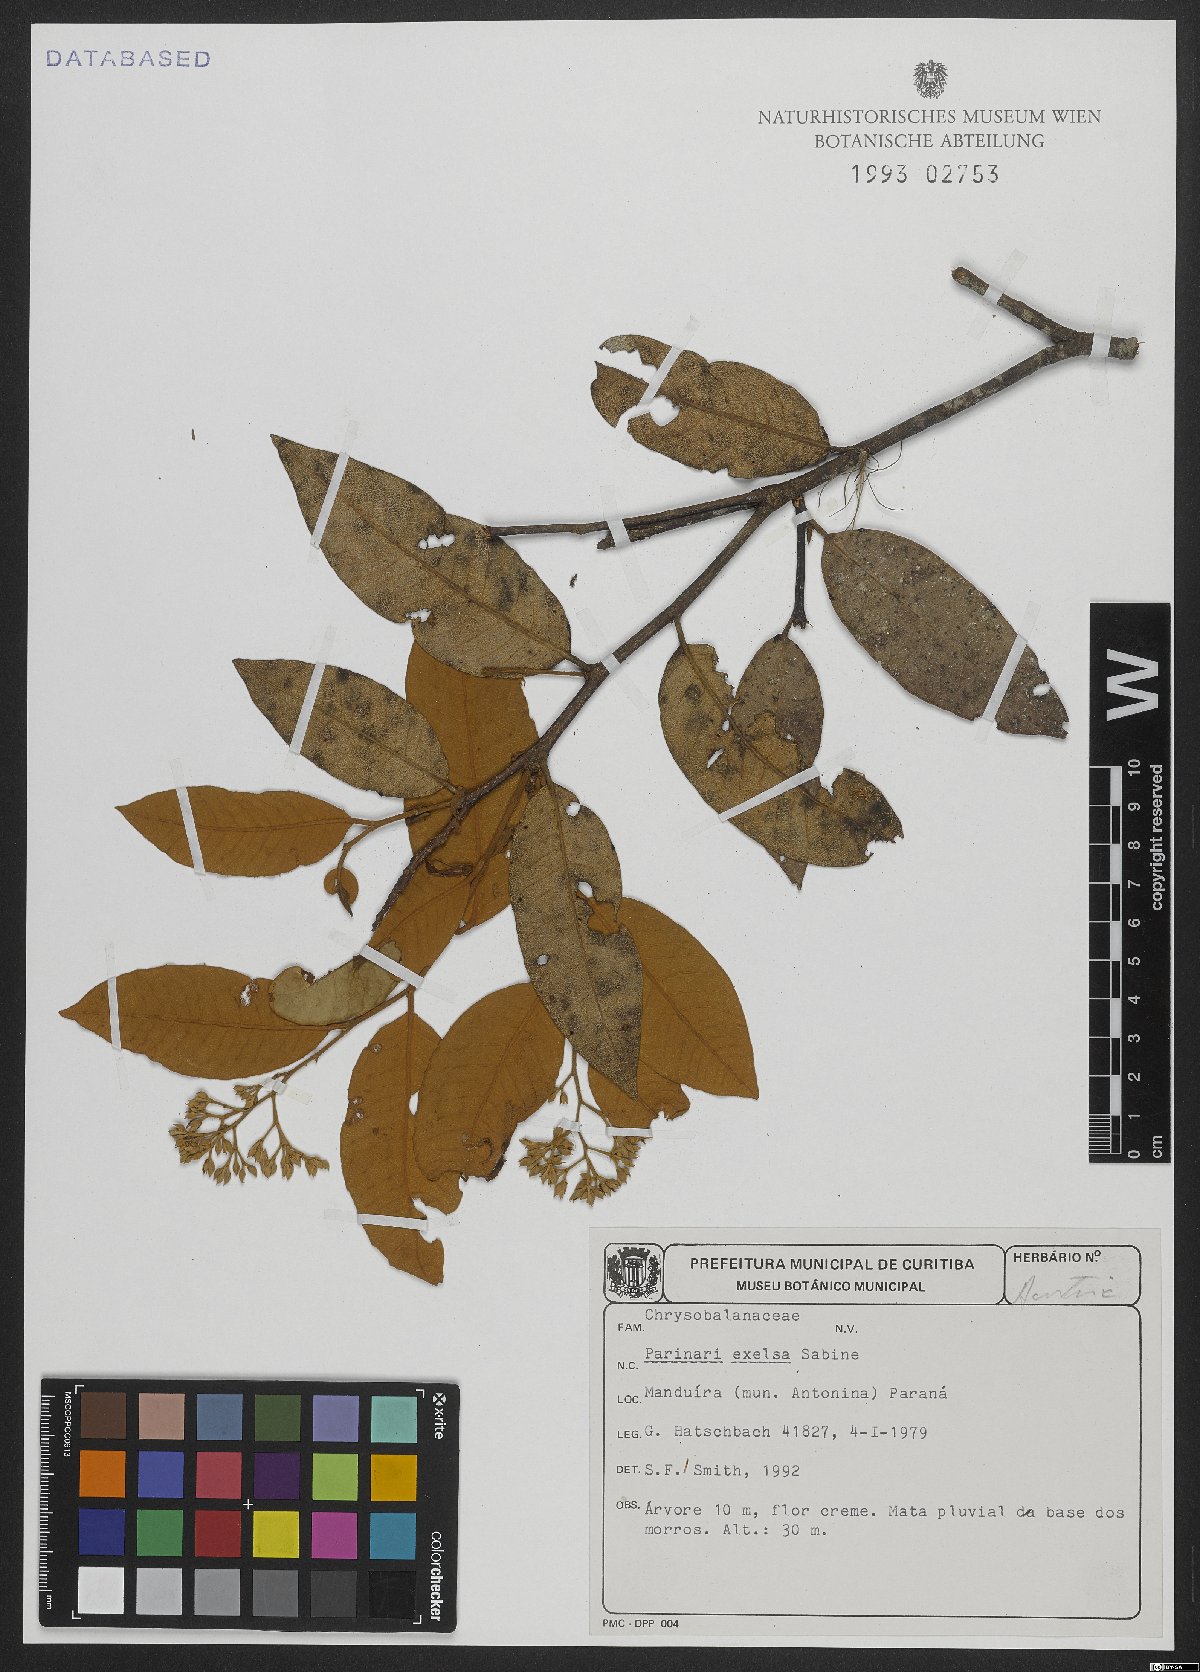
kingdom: Plantae
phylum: Tracheophyta
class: Magnoliopsida
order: Malpighiales
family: Chrysobalanaceae
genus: Parinari
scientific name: Parinari excelsa
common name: Guinea-plum
